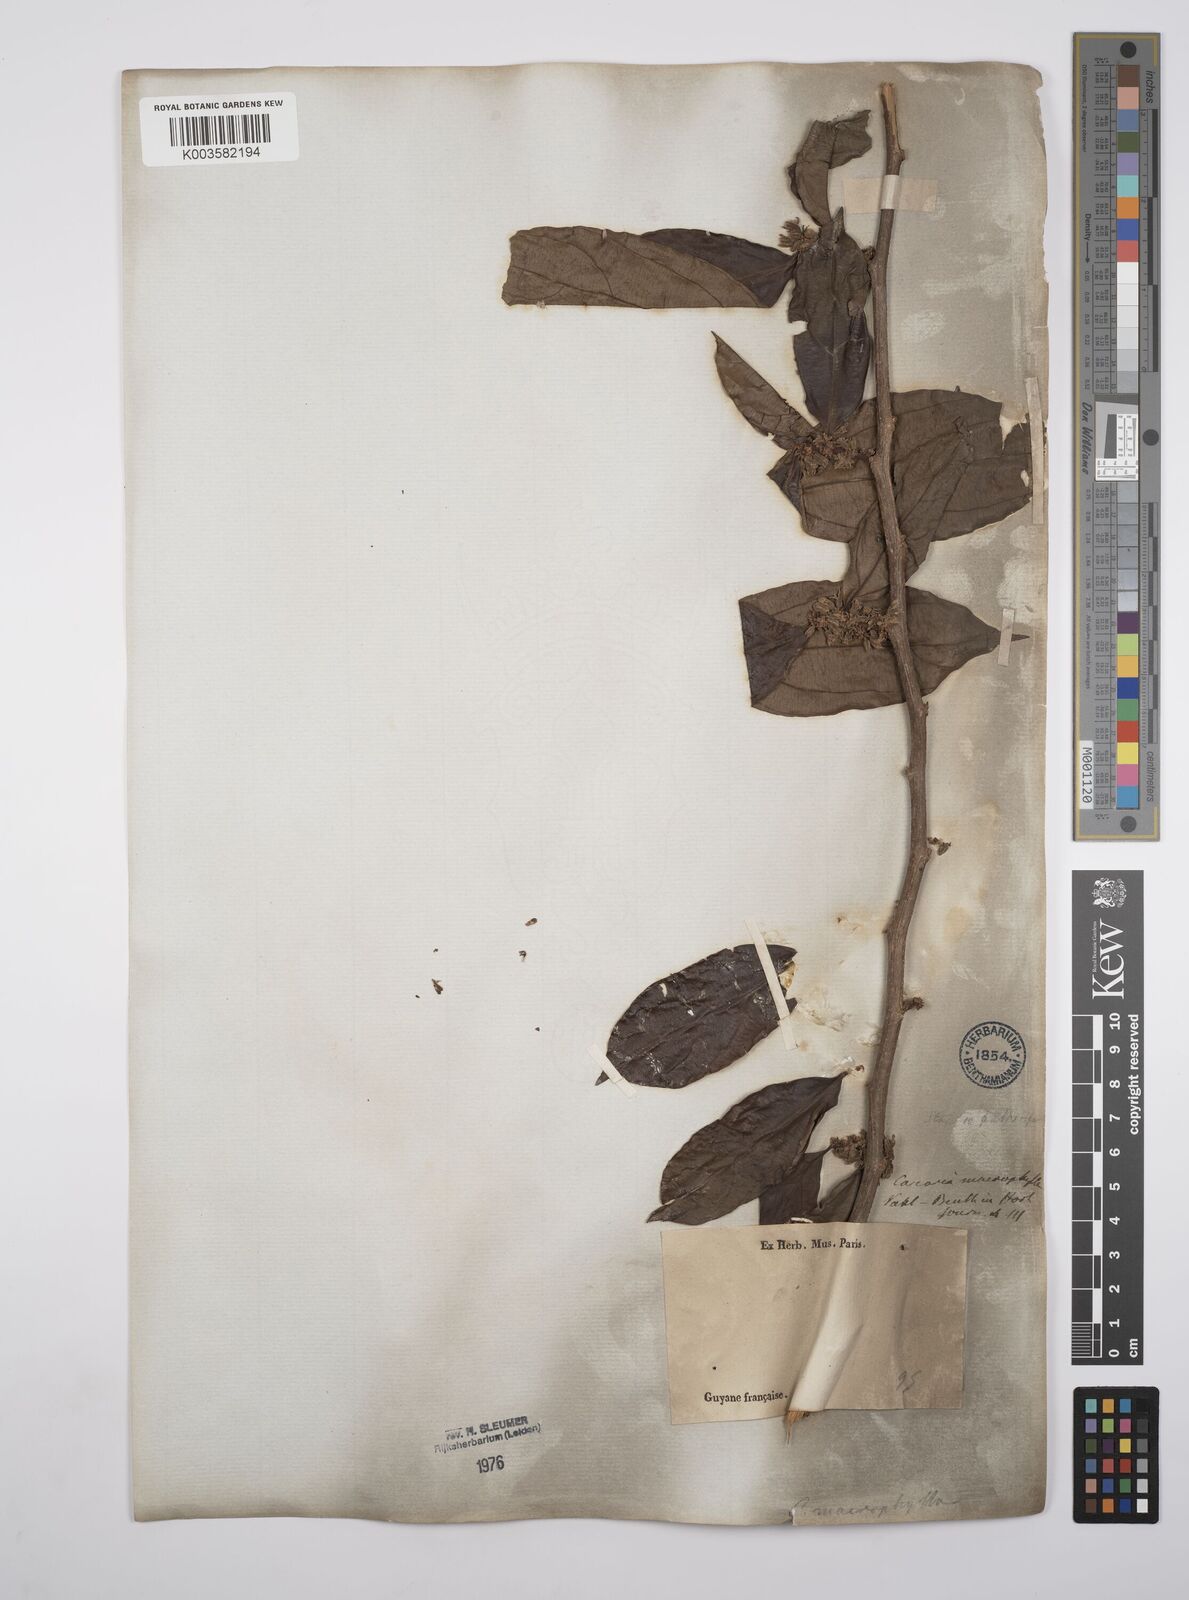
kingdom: Plantae
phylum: Tracheophyta
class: Magnoliopsida
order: Malpighiales
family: Salicaceae
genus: Casearia
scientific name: Casearia pitumba
